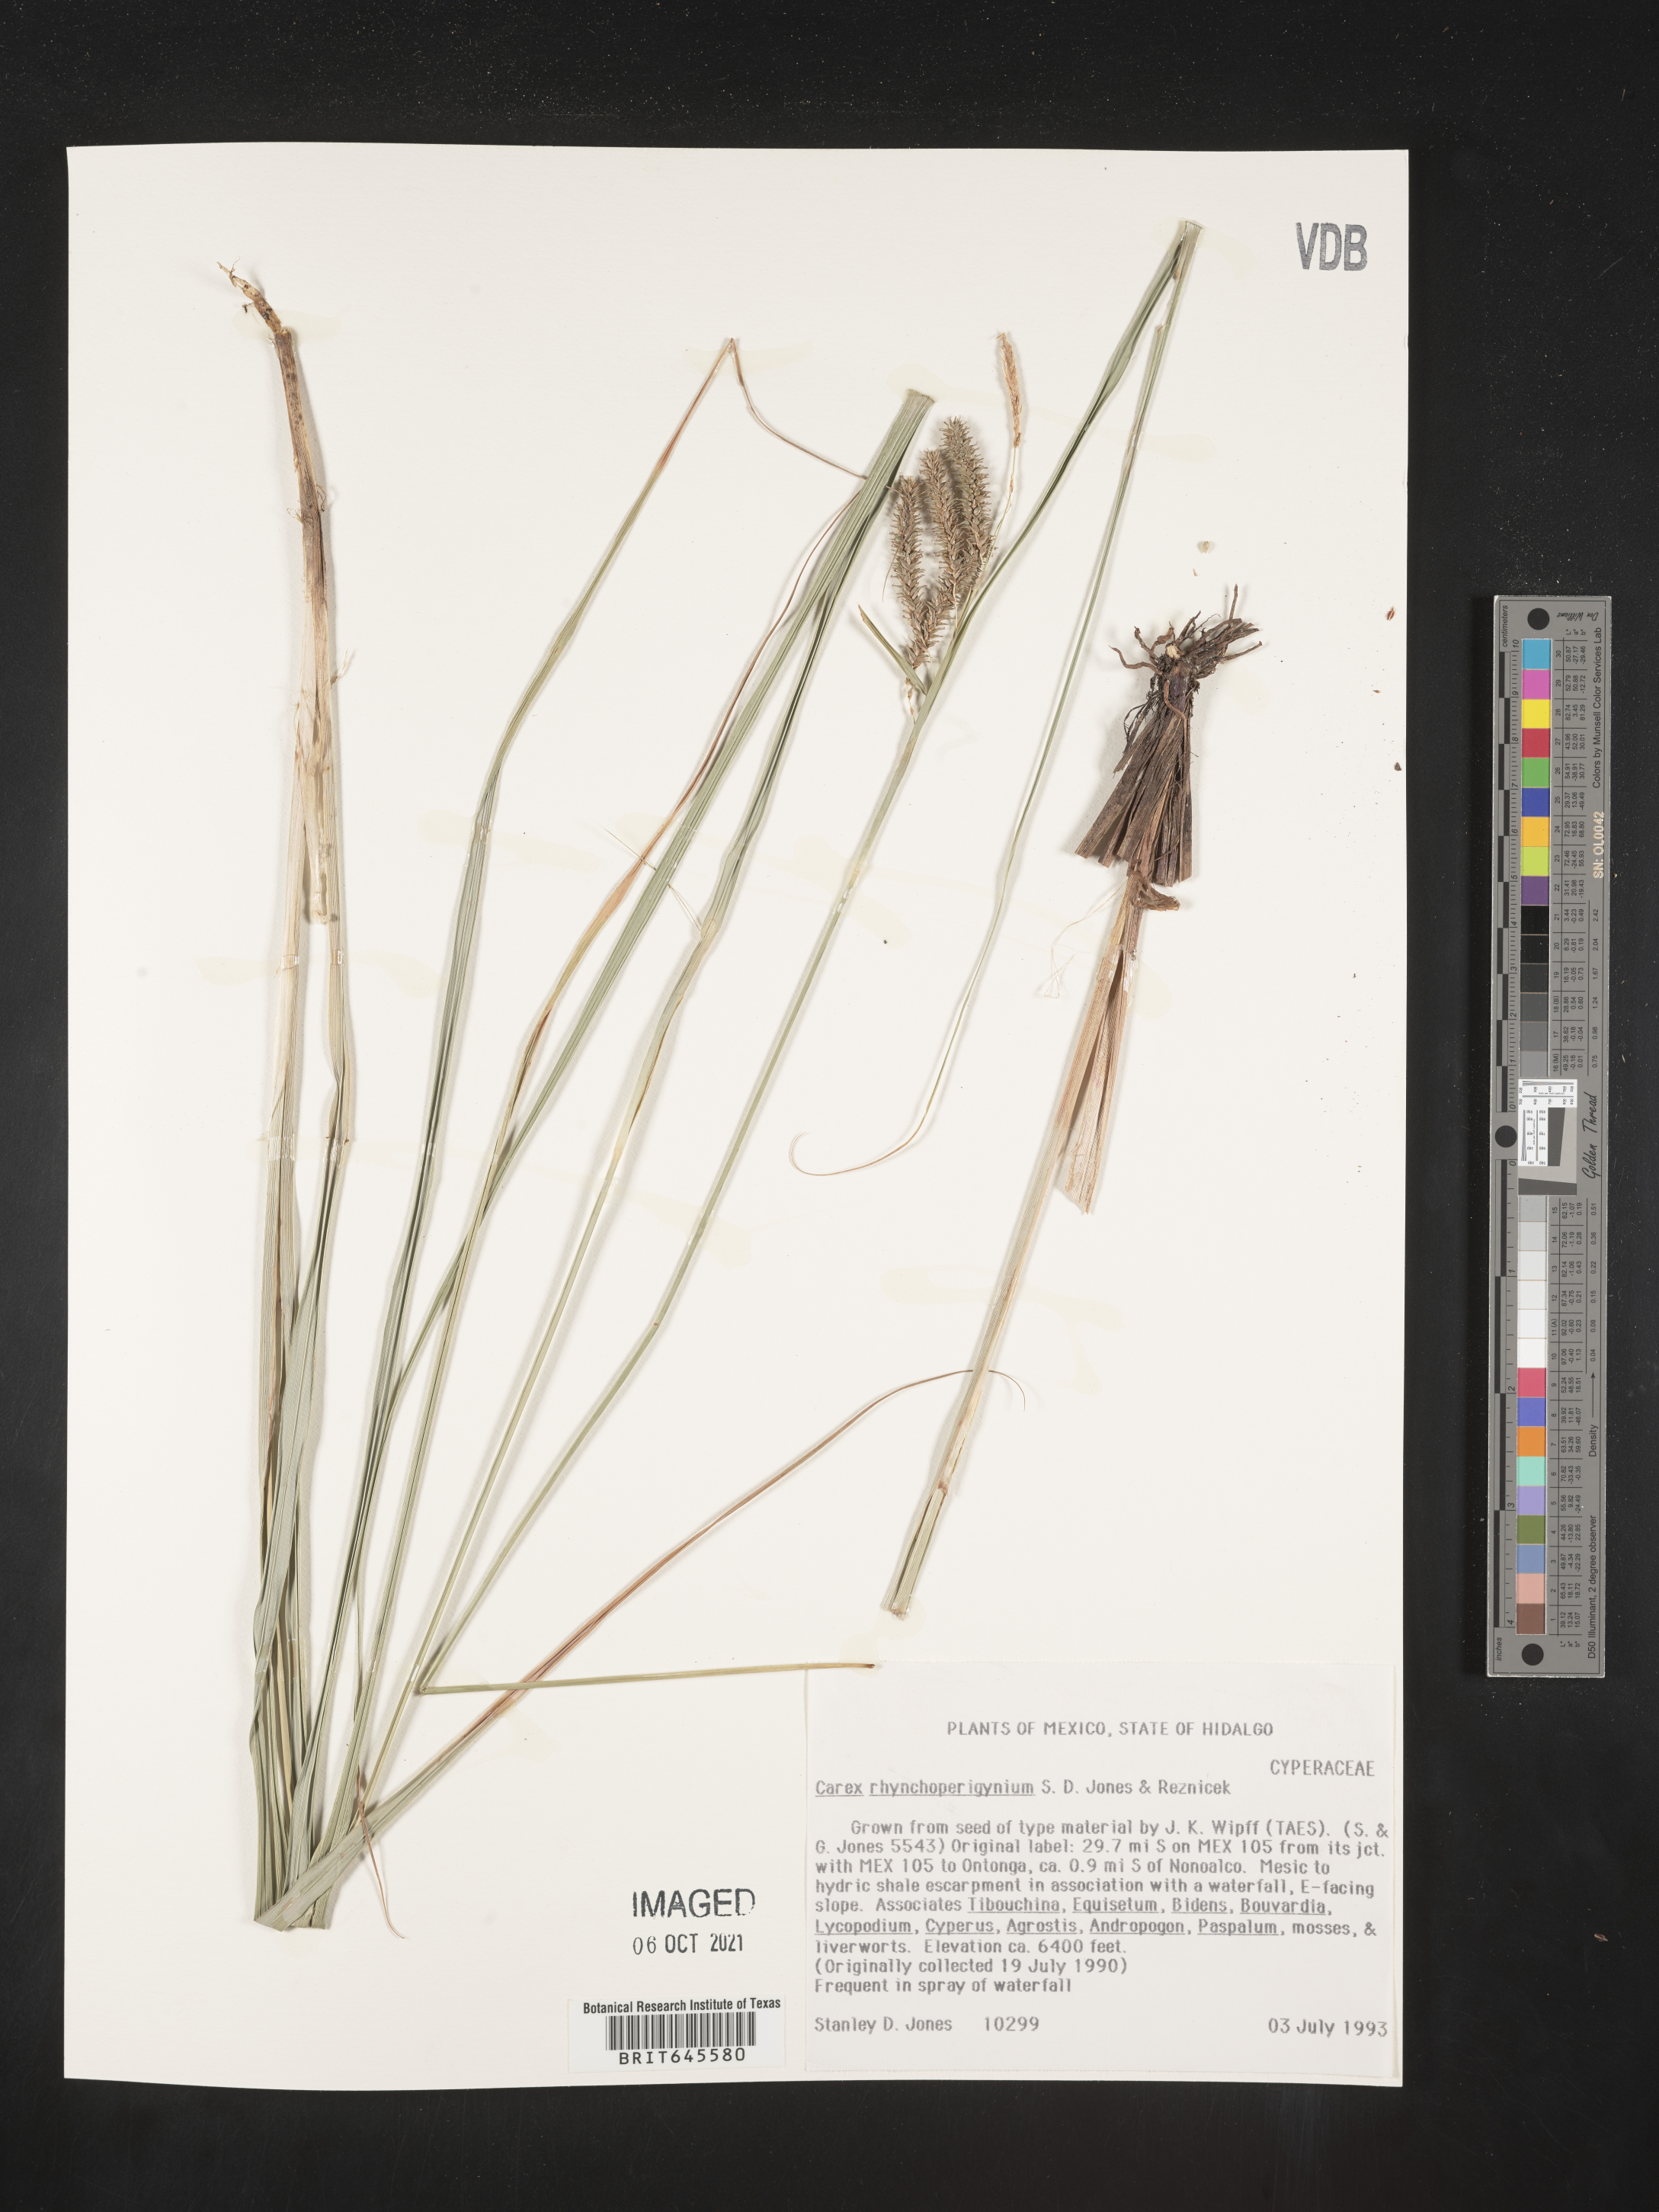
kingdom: Plantae
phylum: Tracheophyta
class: Liliopsida
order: Poales
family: Cyperaceae
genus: Carex
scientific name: Carex
